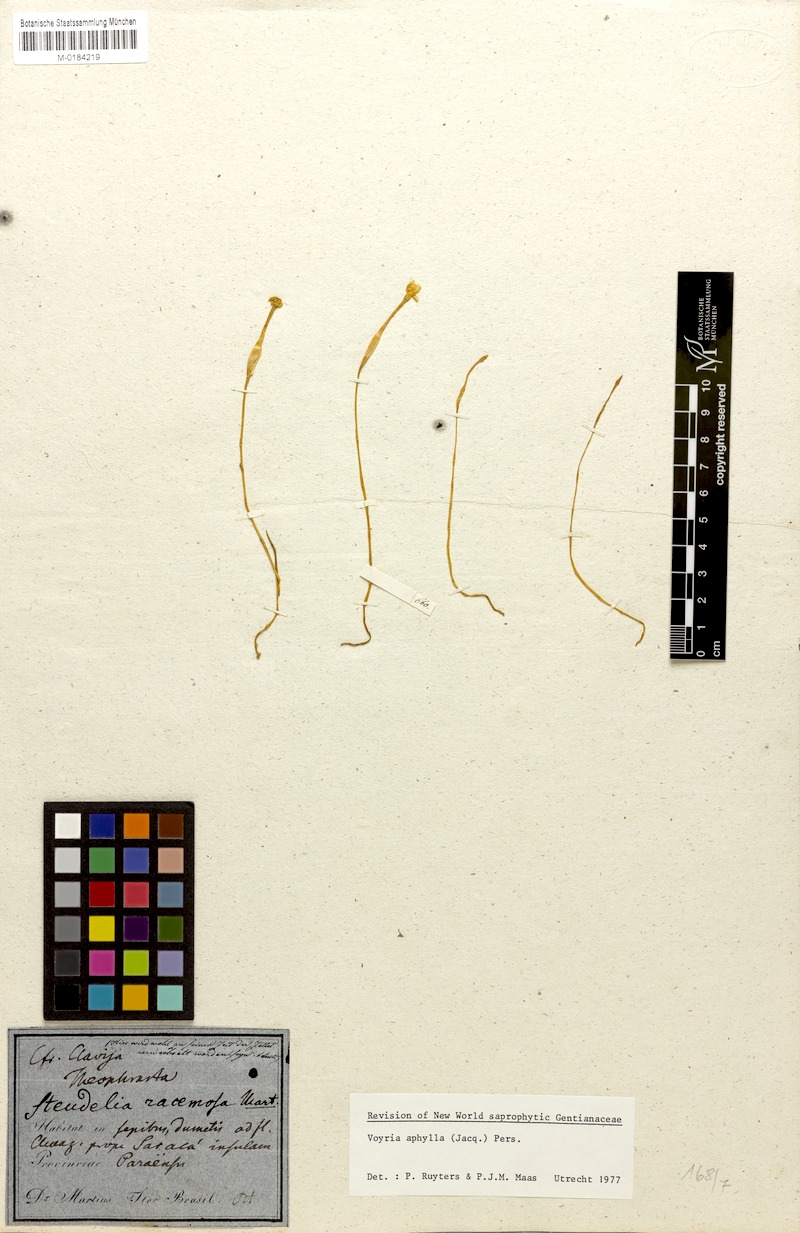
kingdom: Plantae
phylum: Tracheophyta
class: Magnoliopsida
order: Gentianales
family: Gentianaceae
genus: Voyria
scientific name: Voyria aphylla
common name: Leafless ghost plant
